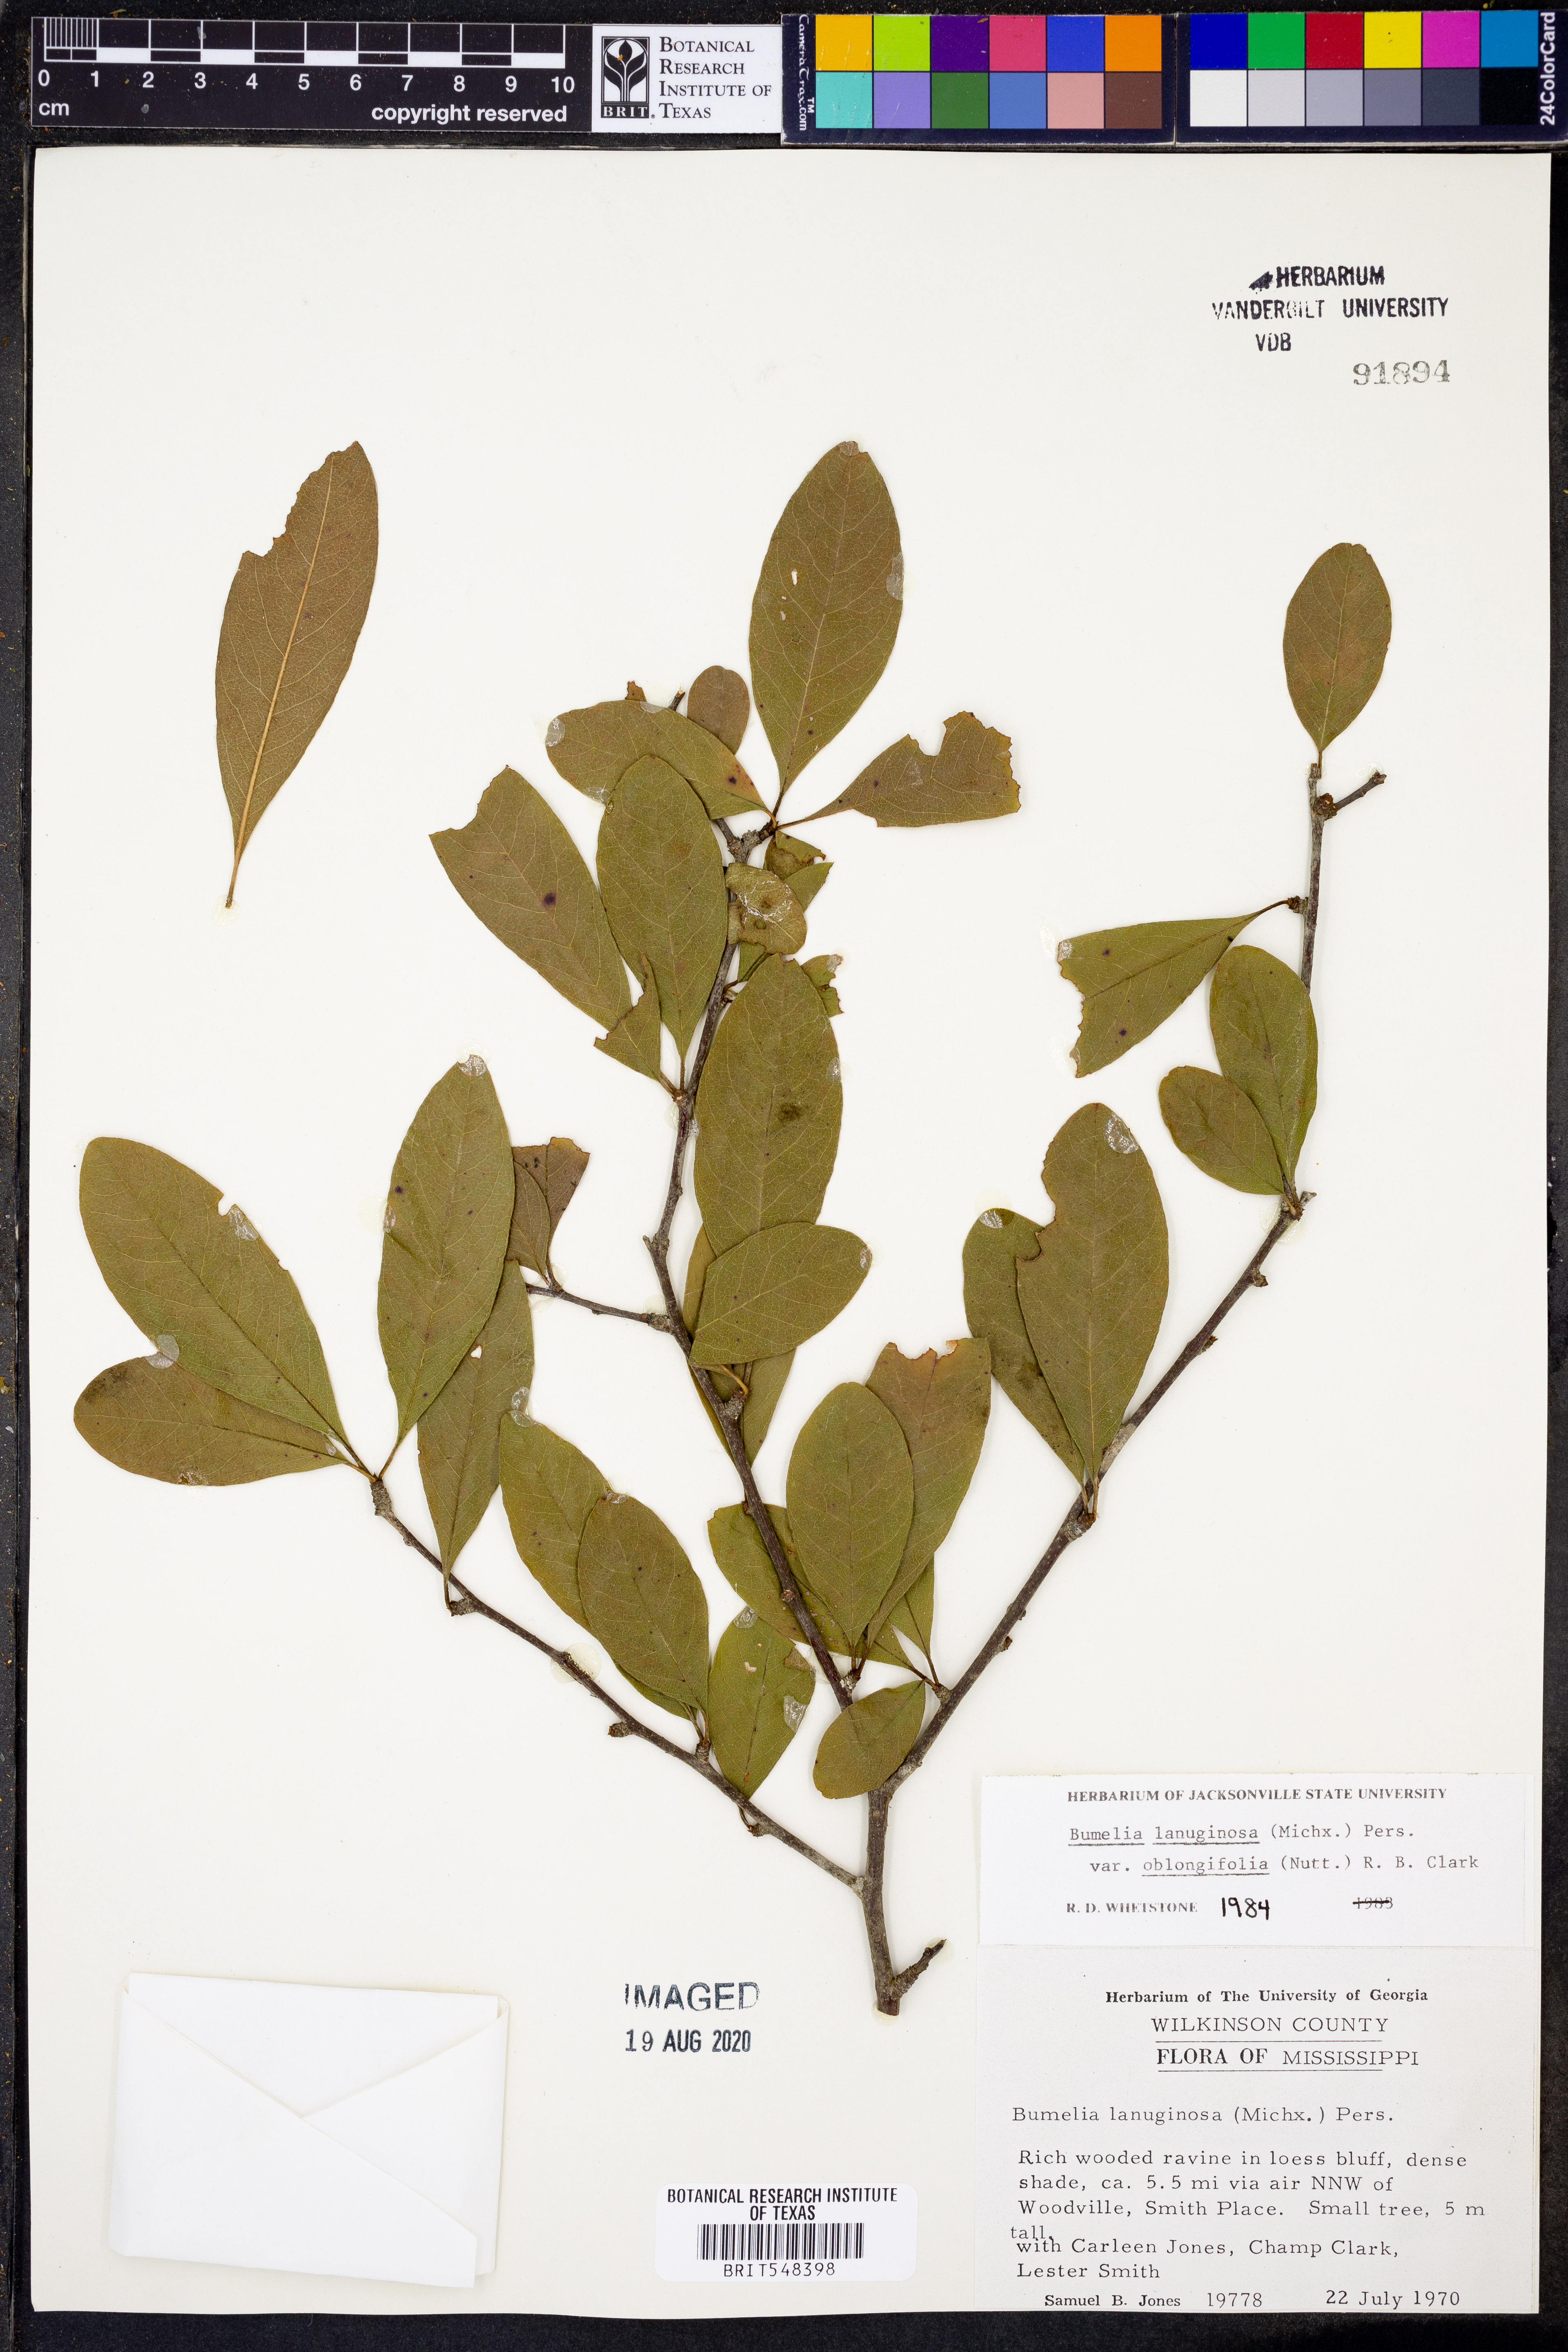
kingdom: Plantae
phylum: Tracheophyta
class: Magnoliopsida
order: Ericales
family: Sapotaceae
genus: Sideroxylon
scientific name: Sideroxylon lanuginosum
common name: Chittamwood
